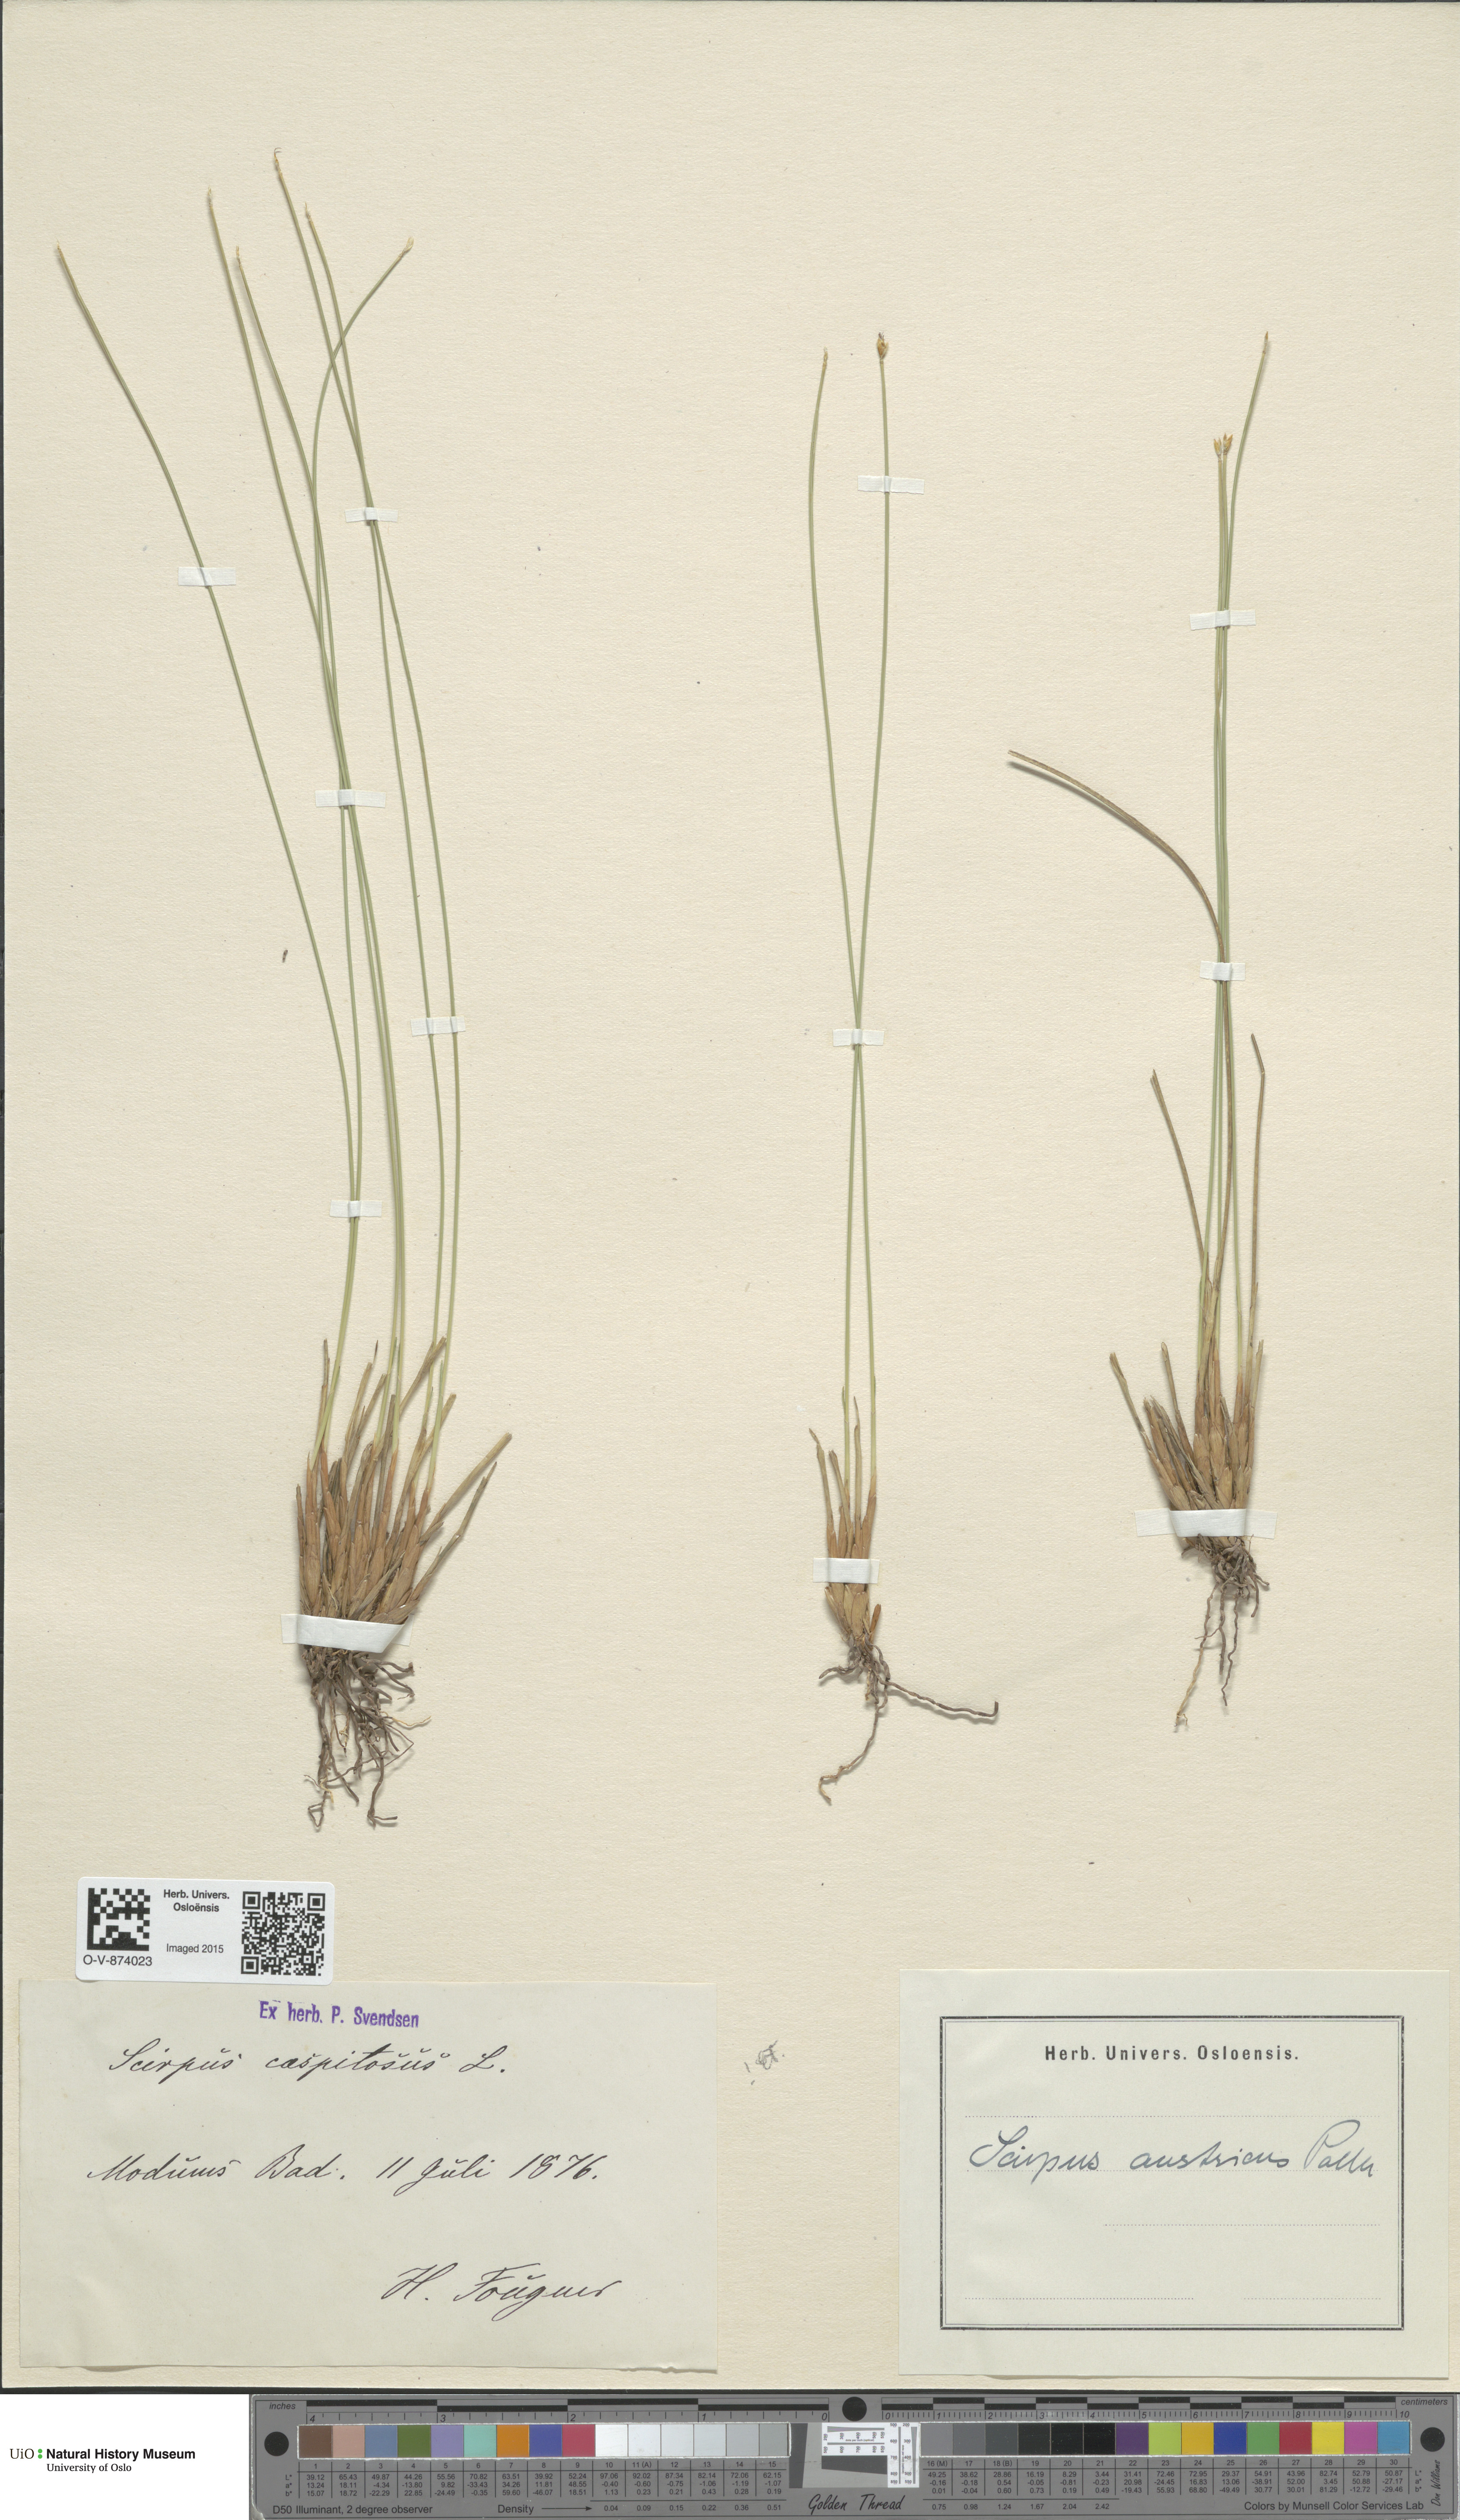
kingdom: Plantae
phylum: Tracheophyta
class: Liliopsida
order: Poales
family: Cyperaceae
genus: Trichophorum
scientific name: Trichophorum cespitosum
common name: Cespitose bulrush
